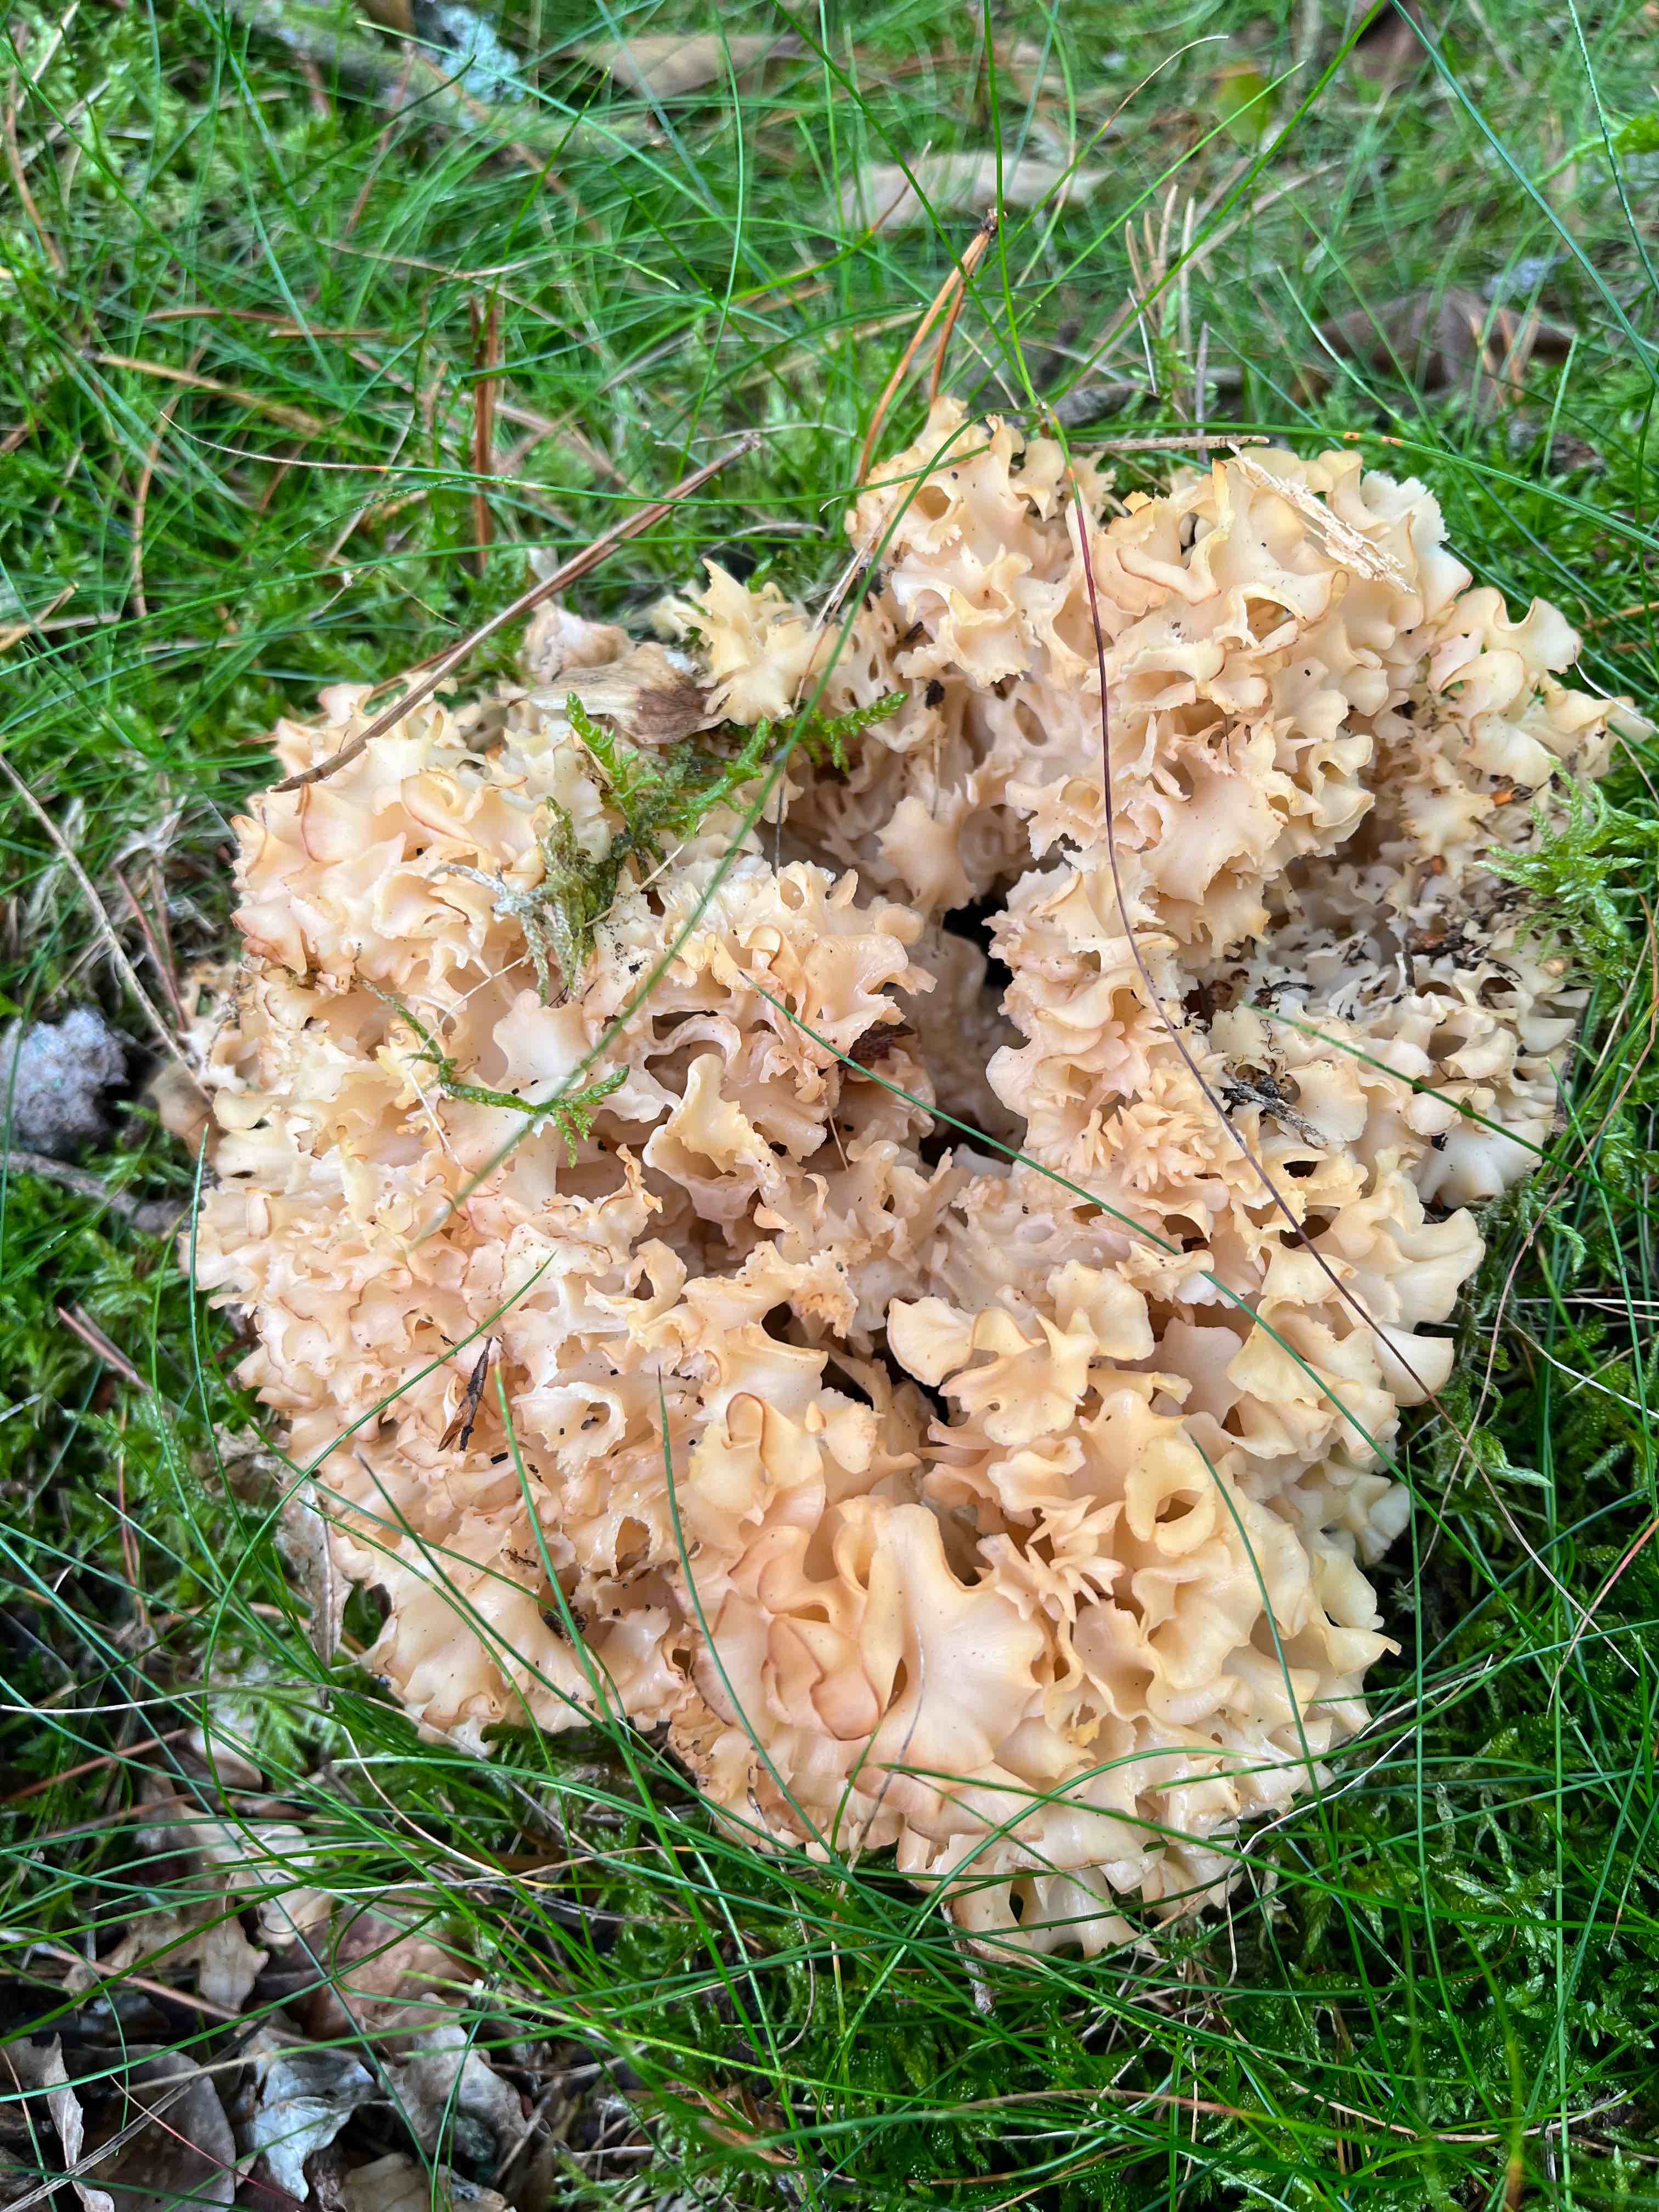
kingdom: Fungi
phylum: Basidiomycota
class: Agaricomycetes
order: Polyporales
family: Sparassidaceae
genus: Sparassis
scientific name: Sparassis crispa
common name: kruset blomkålssvamp
